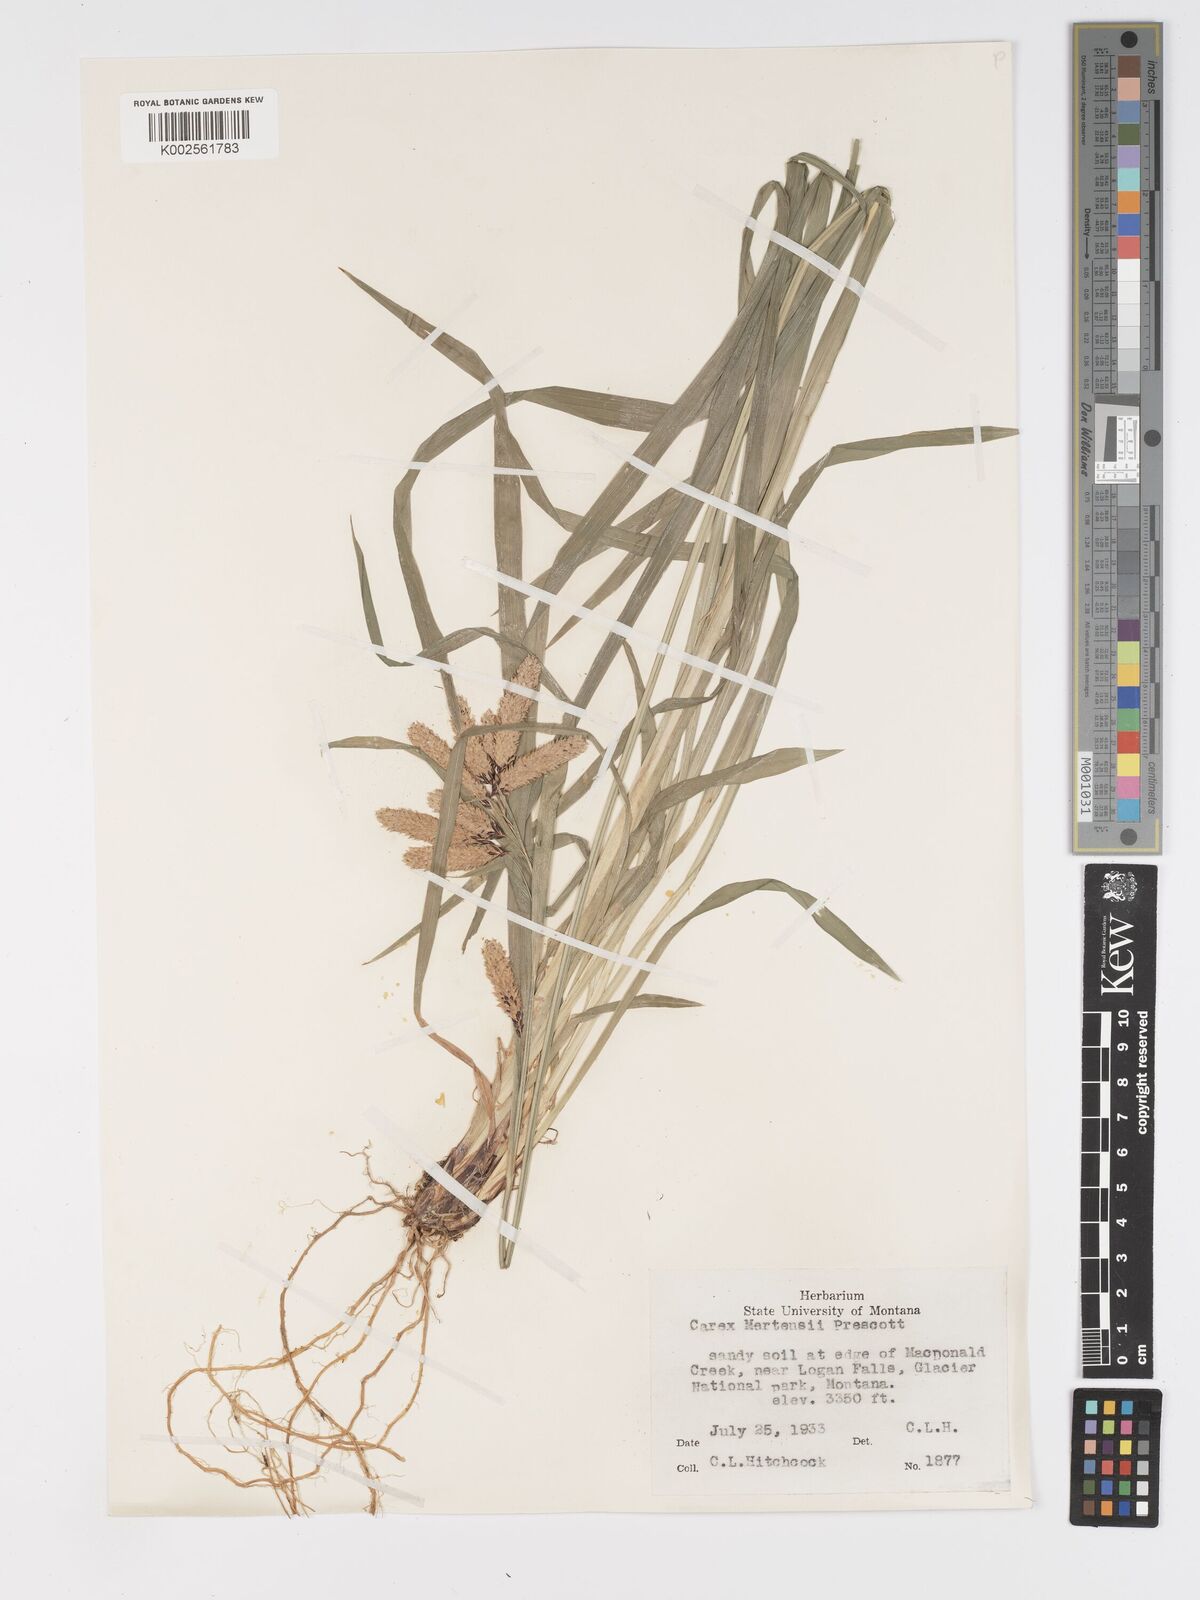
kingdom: Plantae
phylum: Tracheophyta
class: Liliopsida
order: Poales
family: Cyperaceae
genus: Carex
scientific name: Carex mertensii
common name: Mertens' sedge
